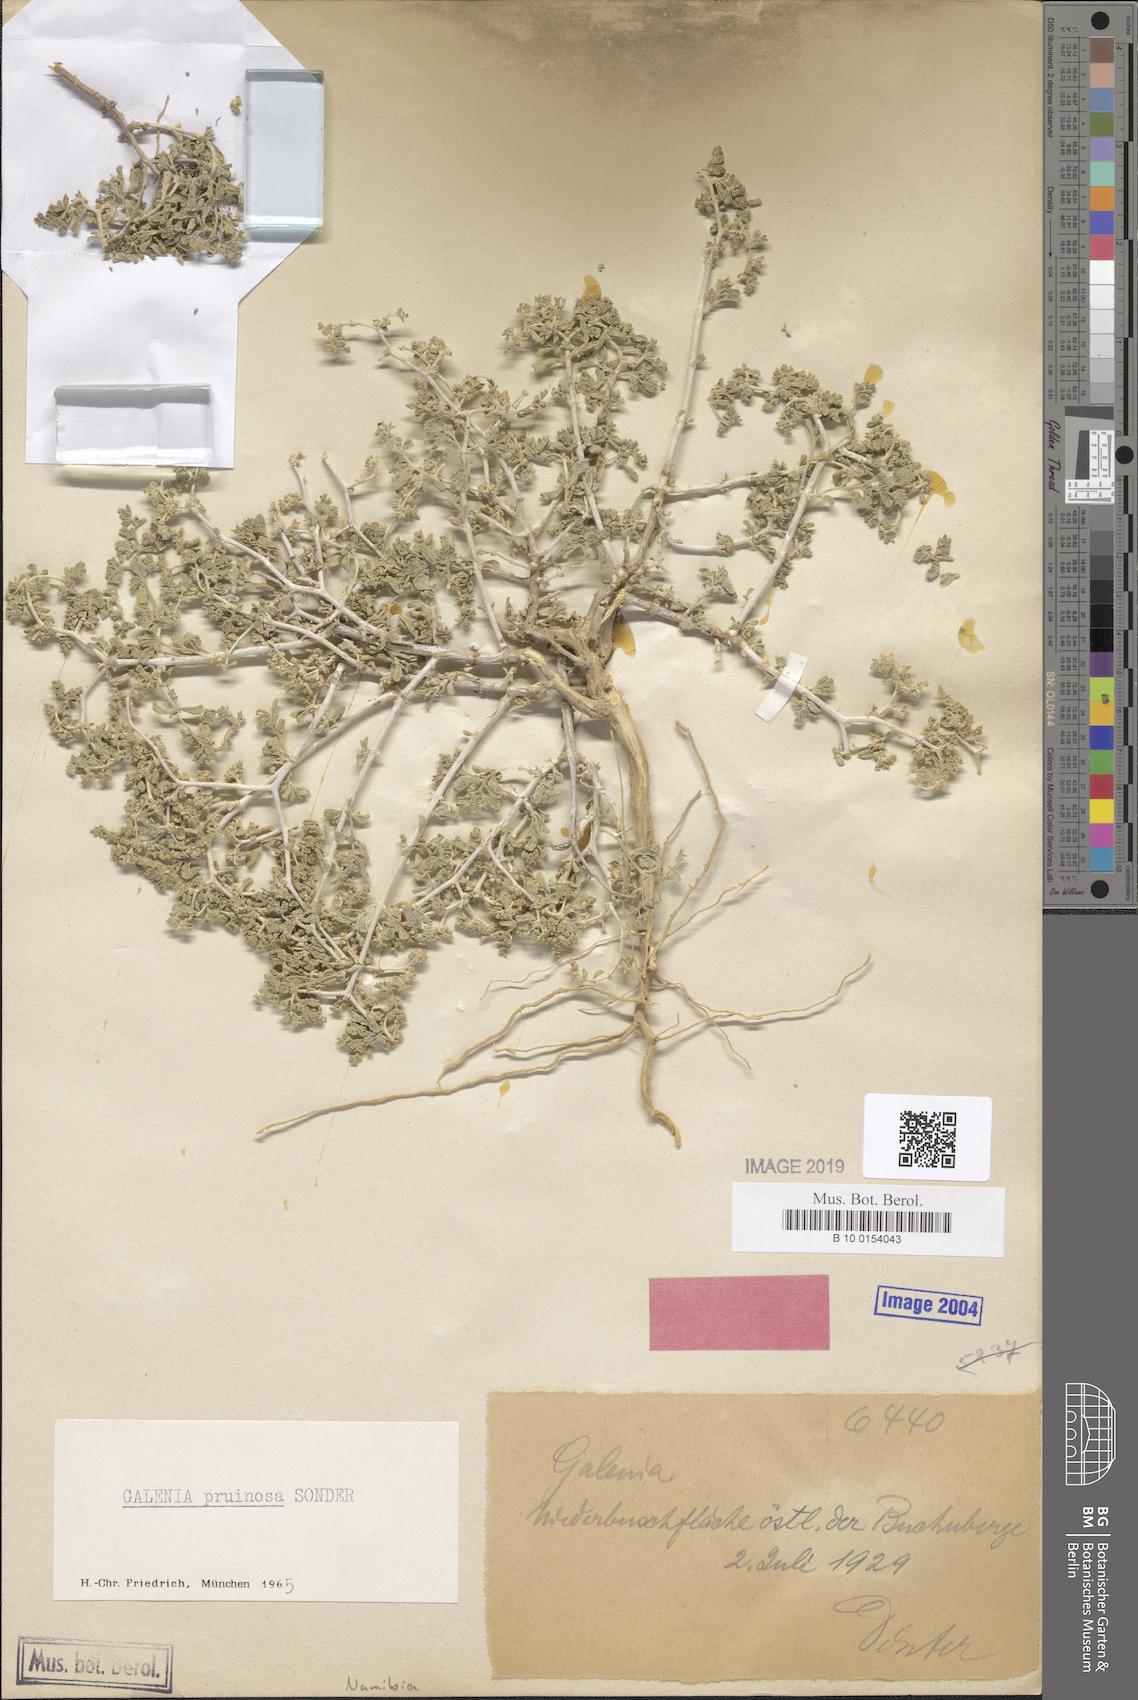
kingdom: Plantae
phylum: Tracheophyta
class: Magnoliopsida
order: Caryophyllales
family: Aizoaceae
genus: Aizoon
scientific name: Aizoon pruinosum
